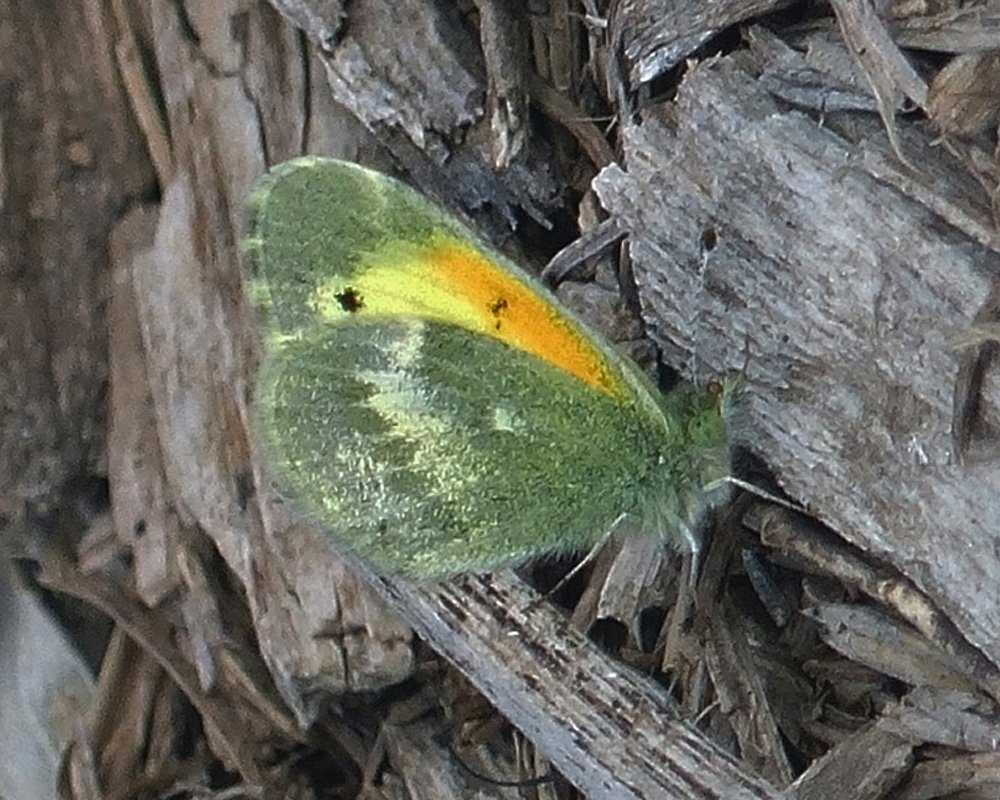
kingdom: Animalia
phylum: Arthropoda
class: Insecta
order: Lepidoptera
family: Pieridae
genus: Nathalis
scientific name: Nathalis iole
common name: Dainty Sulphur
